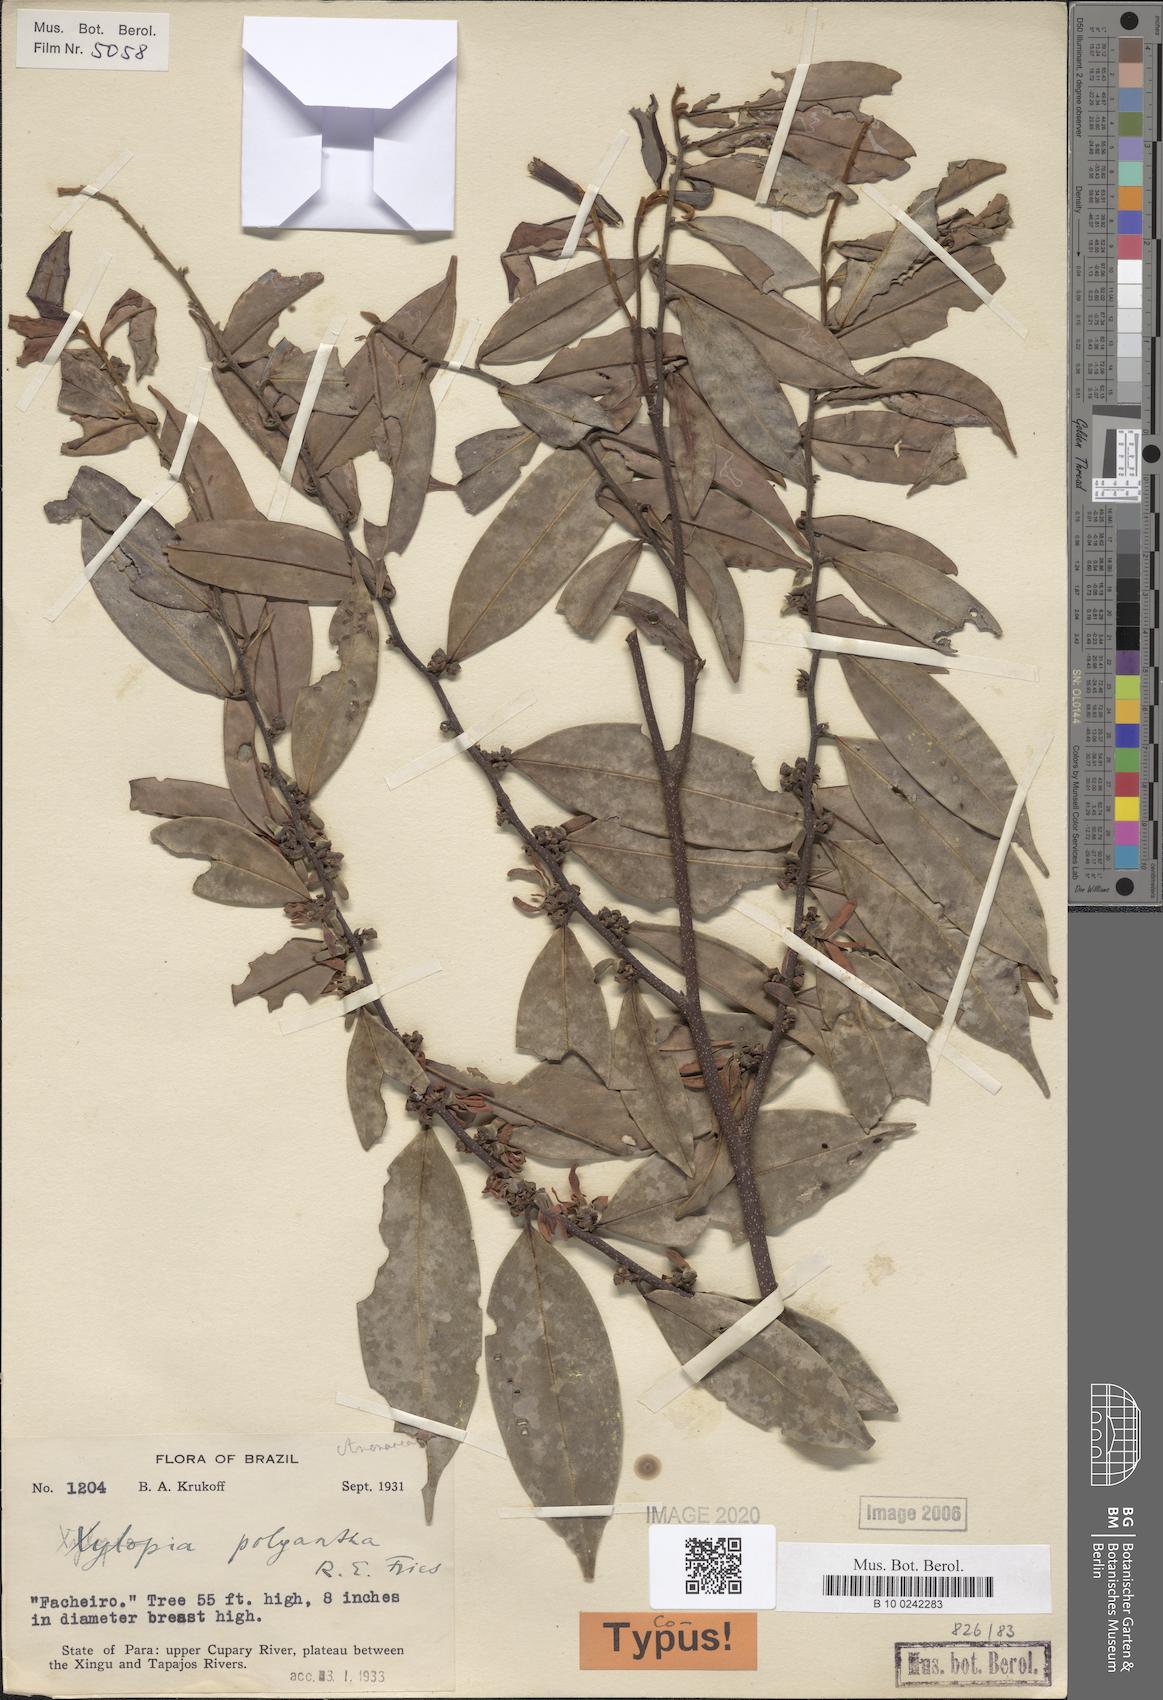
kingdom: Plantae
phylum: Tracheophyta
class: Magnoliopsida
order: Magnoliales
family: Annonaceae
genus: Xylopia
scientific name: Xylopia polyantha
